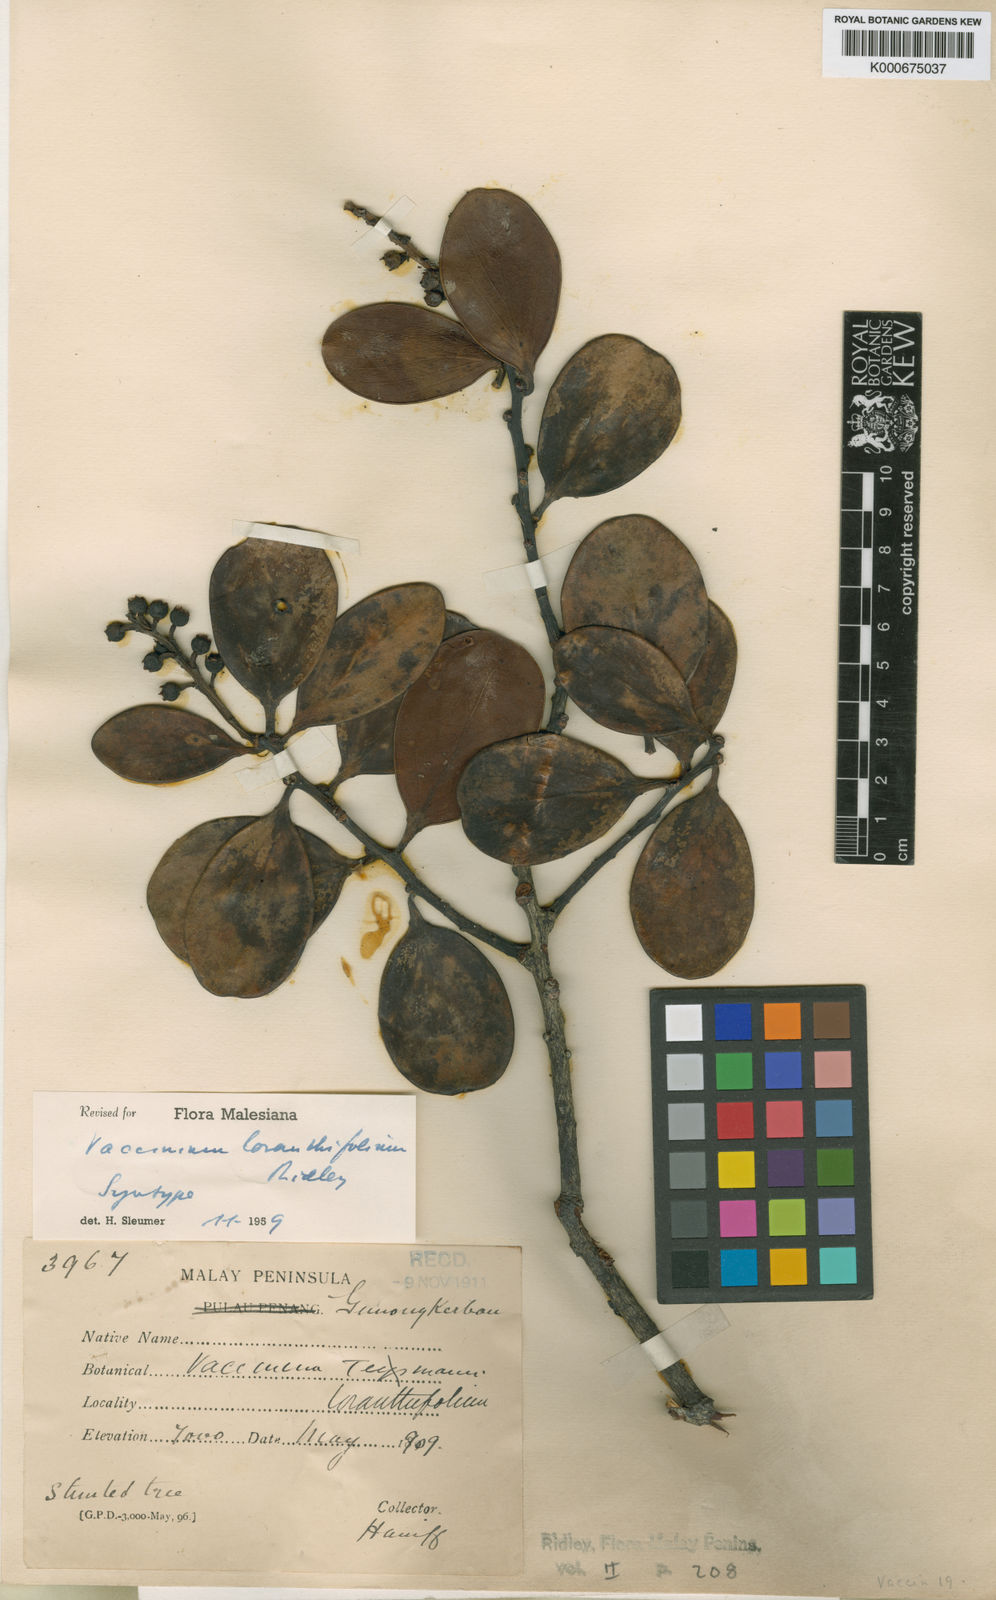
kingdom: Plantae
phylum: Tracheophyta
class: Magnoliopsida
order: Ericales
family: Ericaceae
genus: Vaccinium
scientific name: Vaccinium loranthifolium
